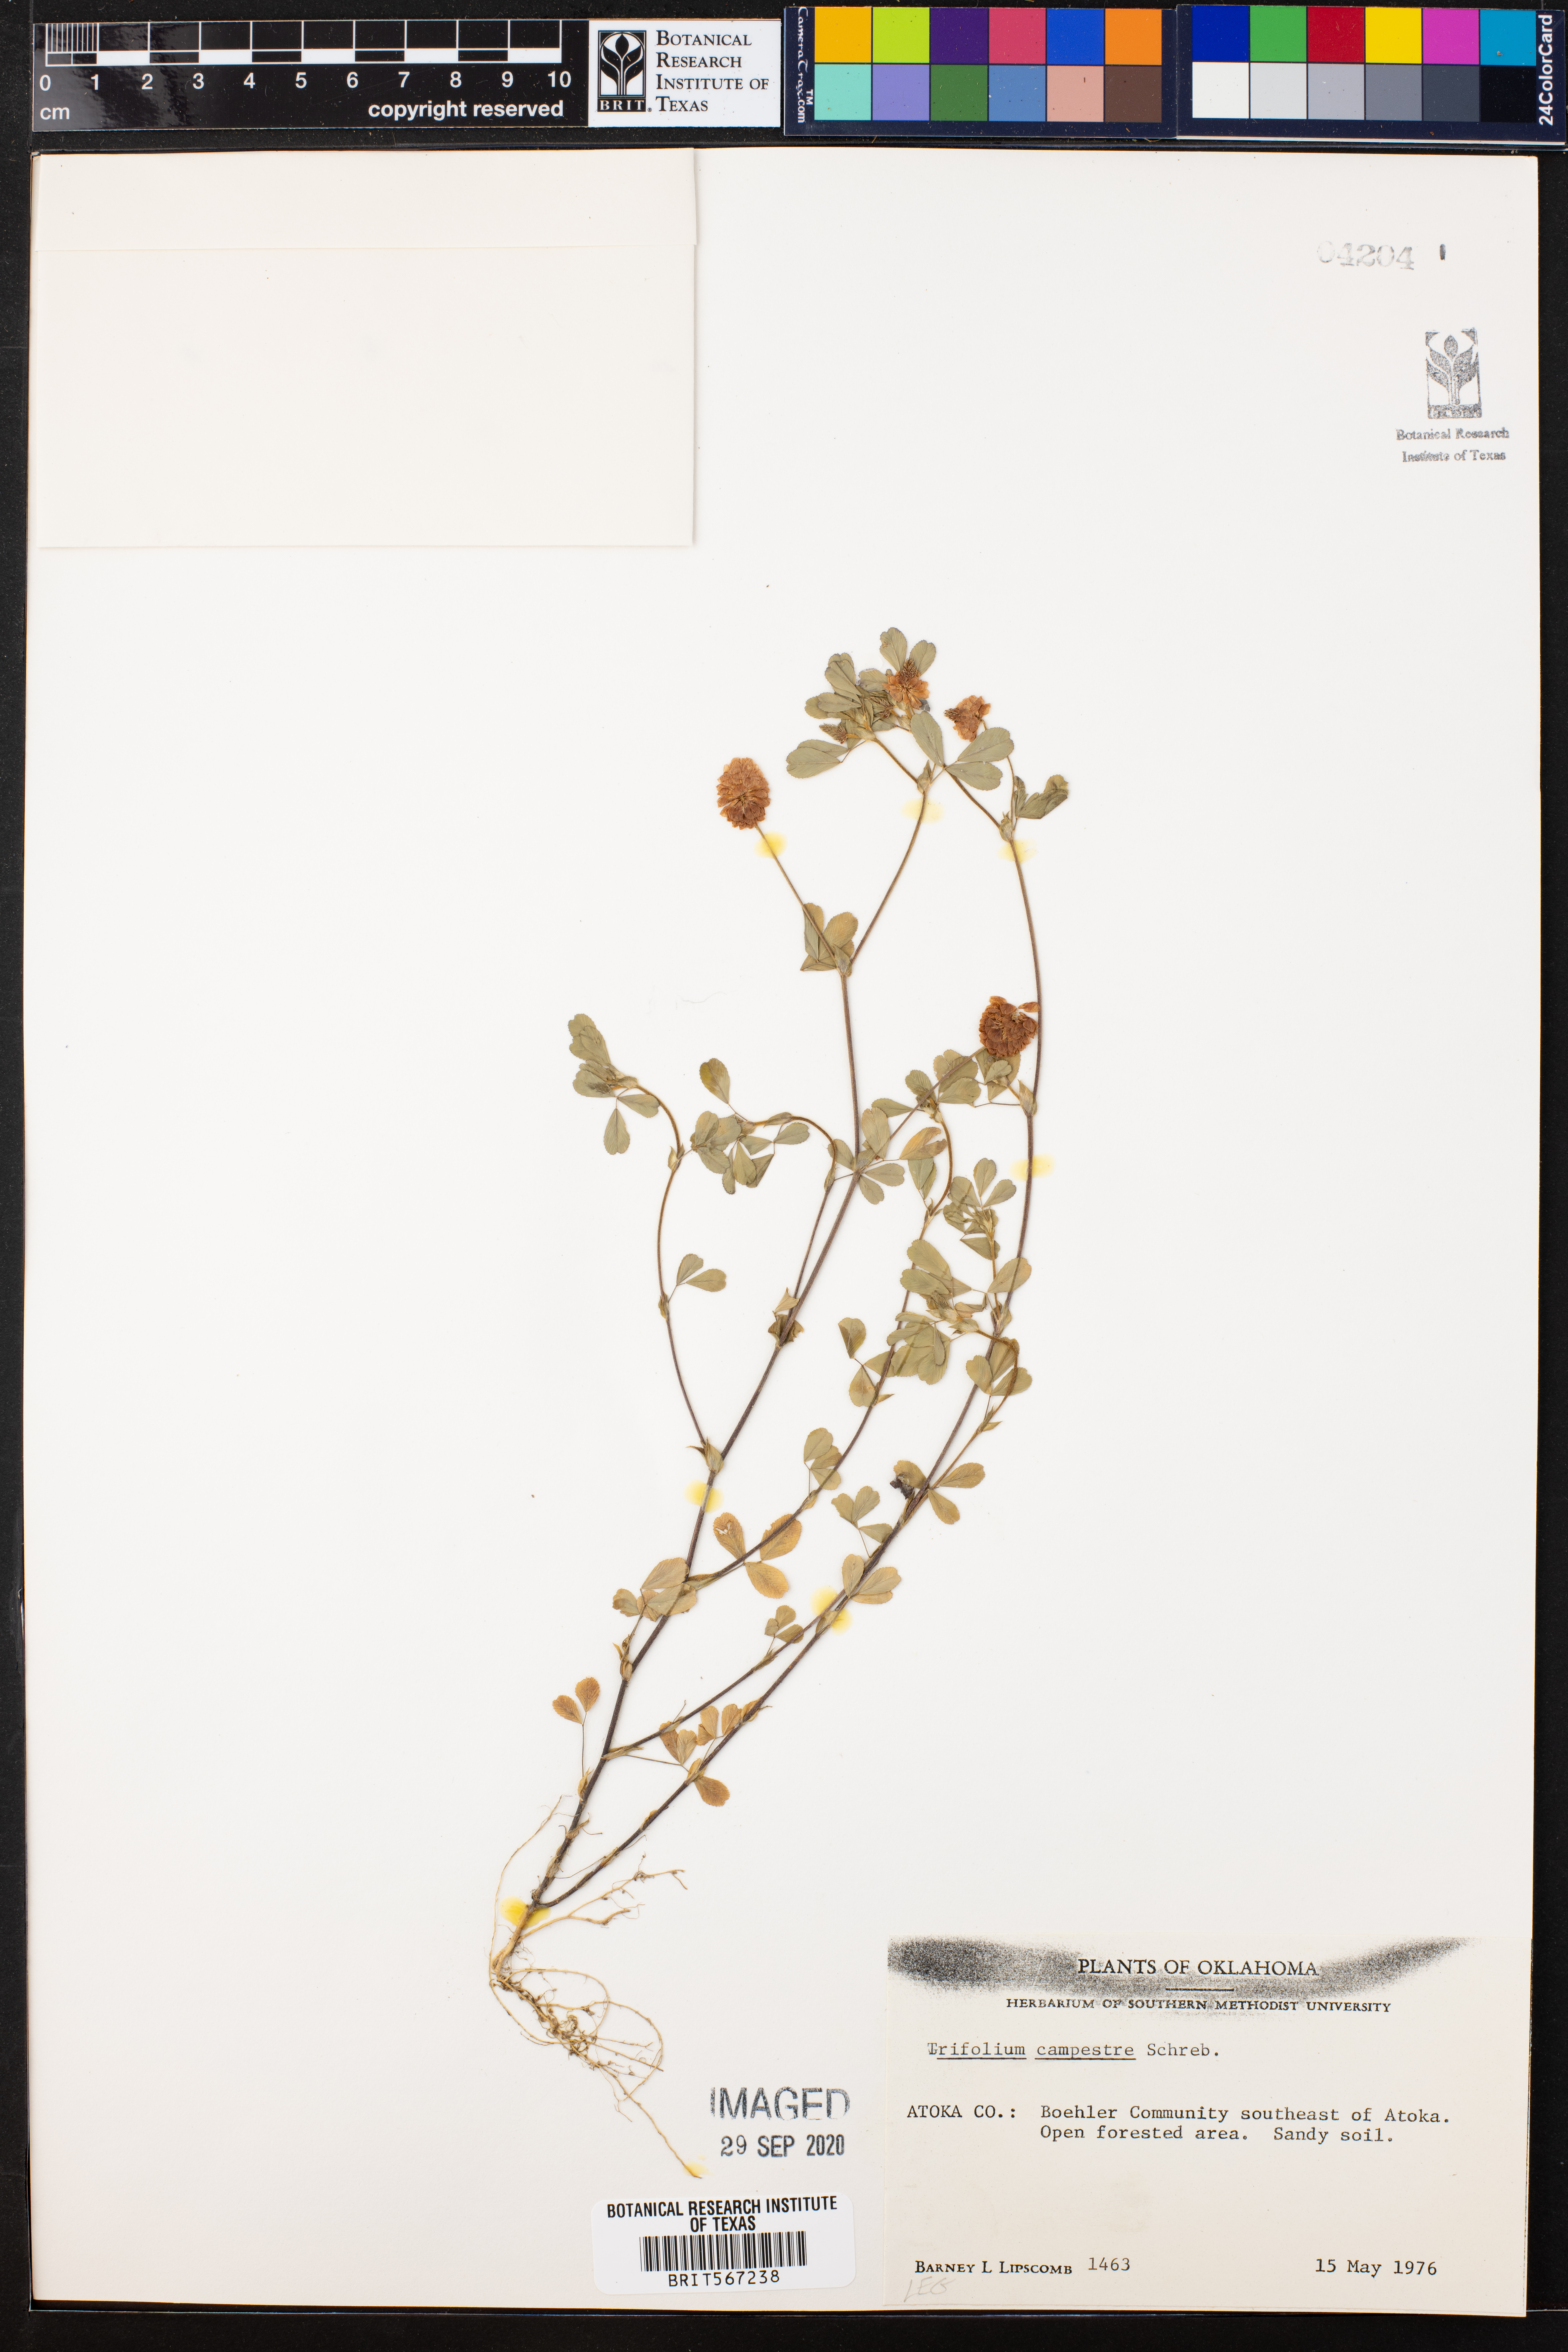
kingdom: Plantae
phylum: Tracheophyta
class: Magnoliopsida
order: Fabales
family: Fabaceae
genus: Trifolium
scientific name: Trifolium campestre
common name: Field clover
